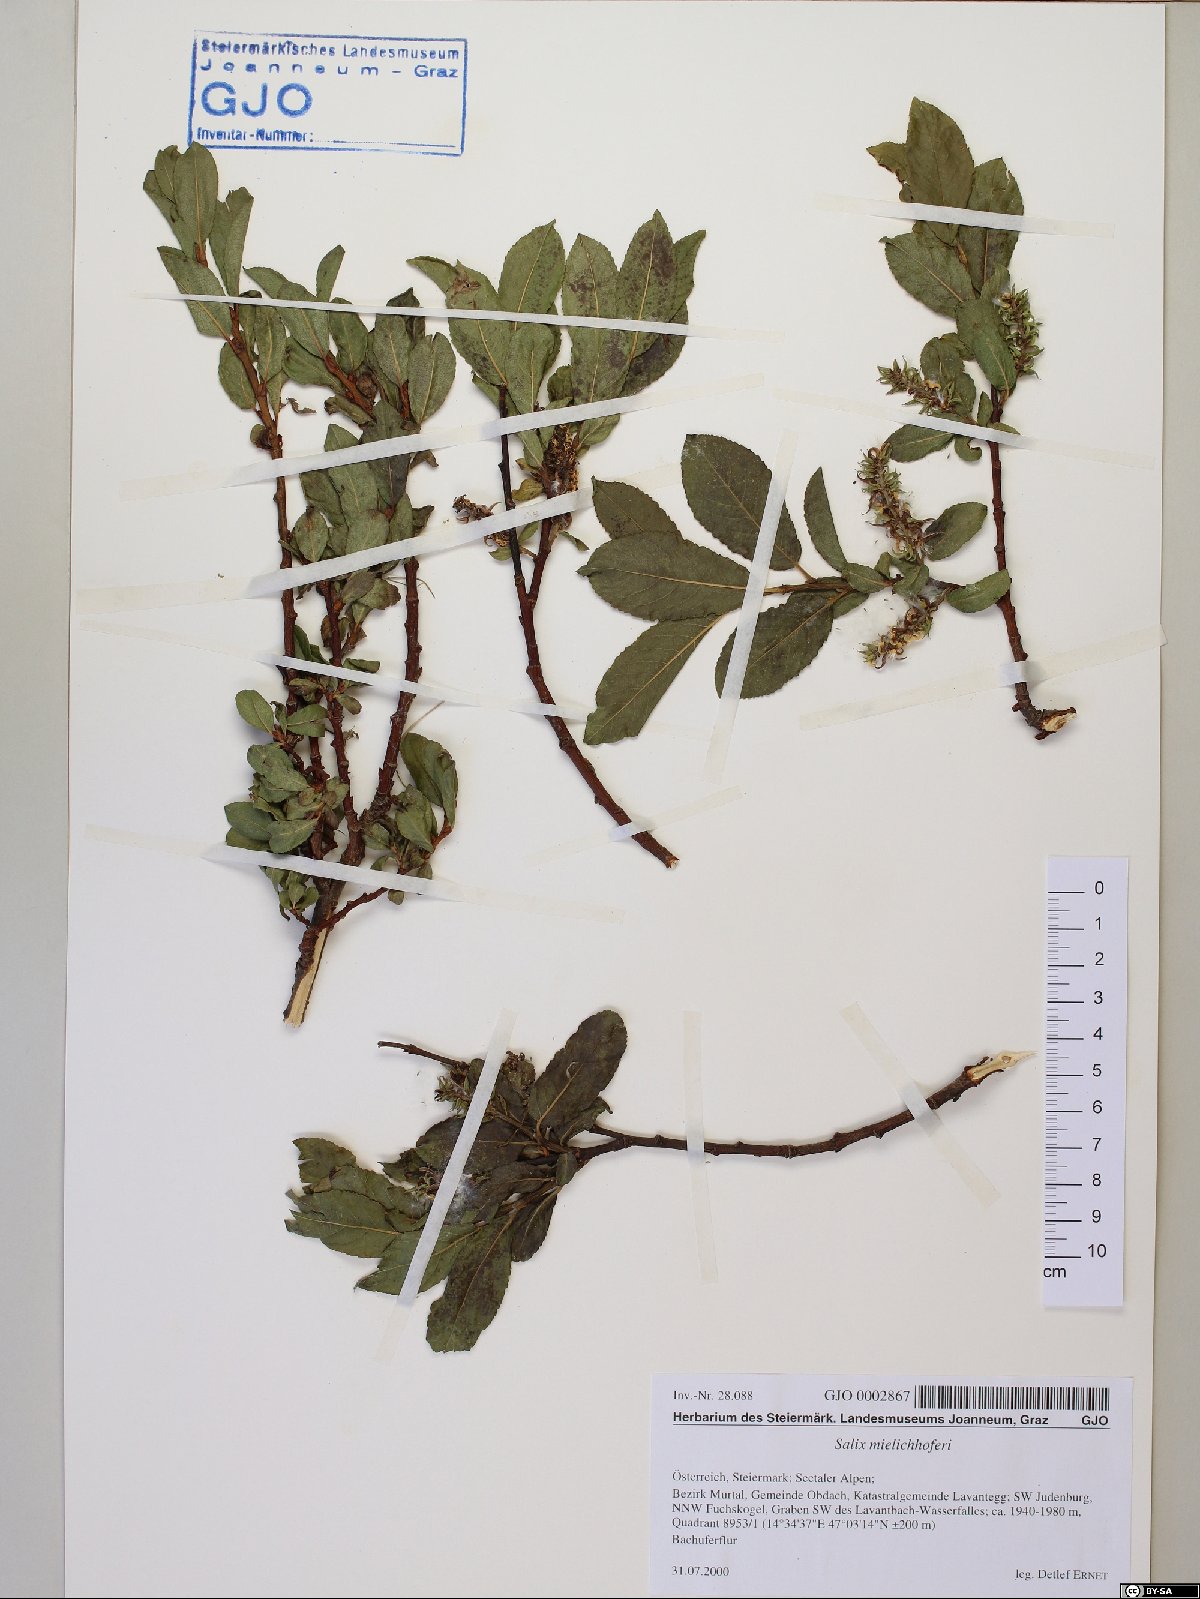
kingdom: Plantae
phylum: Tracheophyta
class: Magnoliopsida
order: Malpighiales
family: Salicaceae
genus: Salix
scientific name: Salix mielichhoferi
